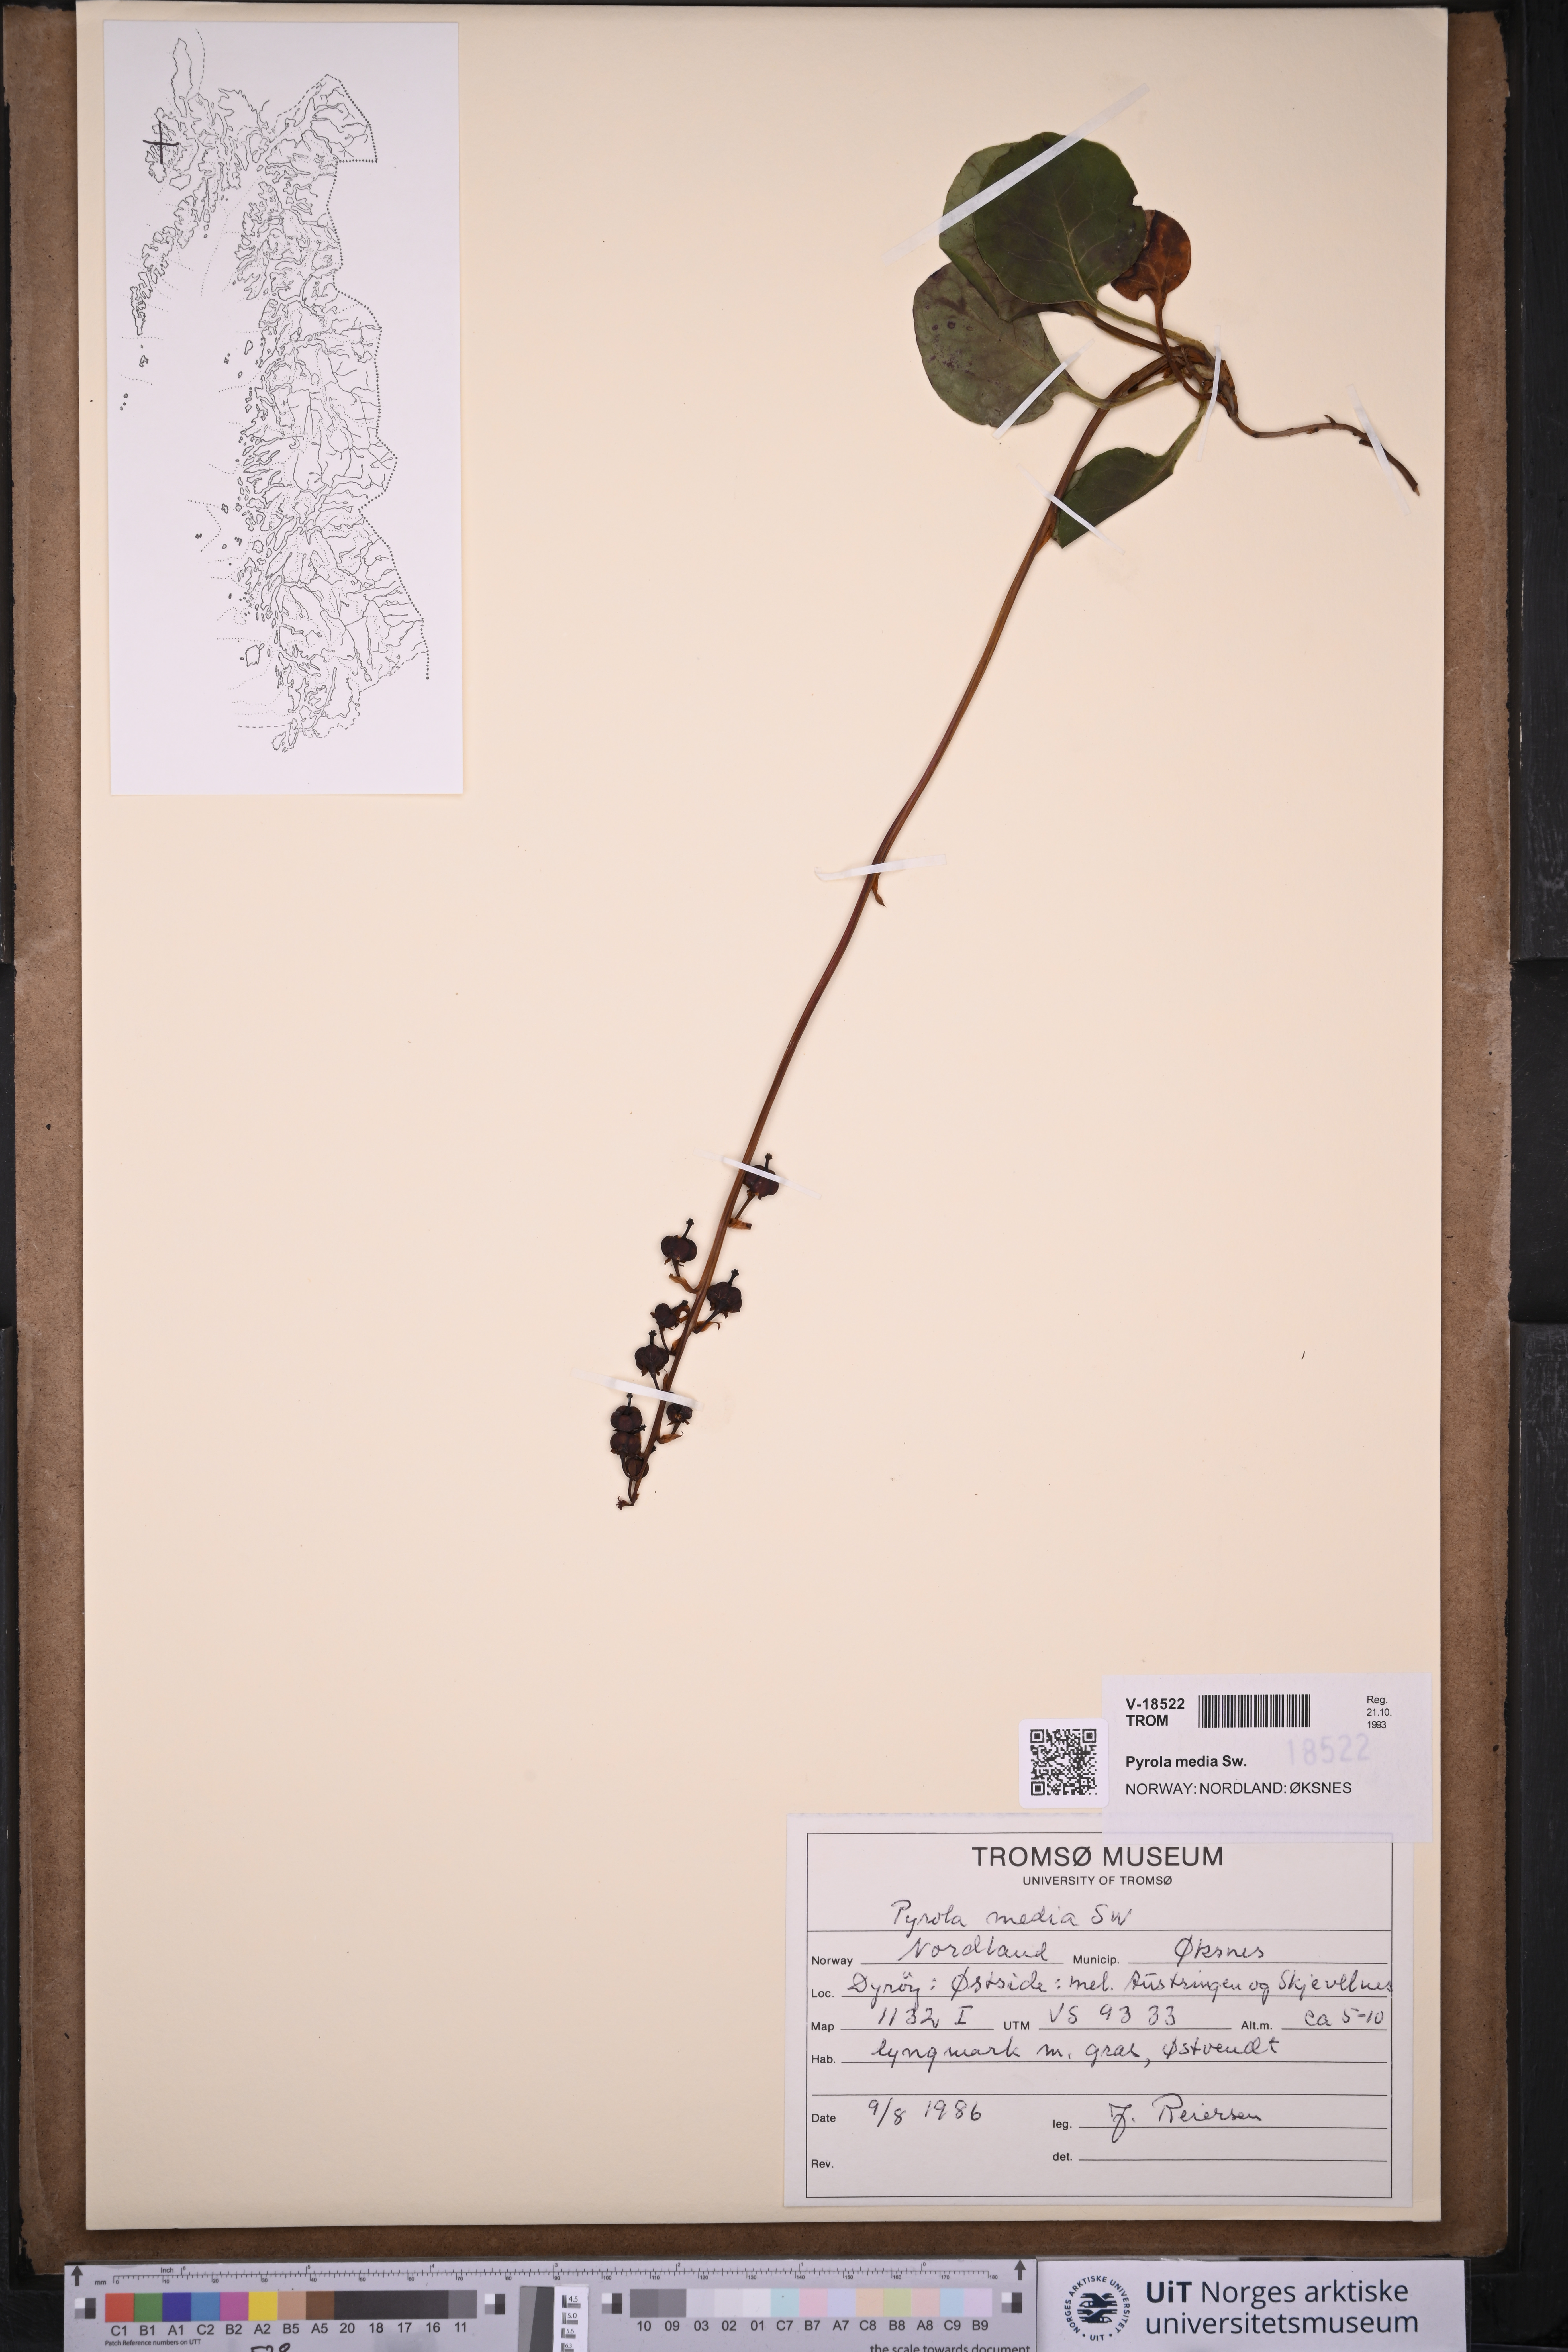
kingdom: Plantae
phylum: Tracheophyta
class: Magnoliopsida
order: Ericales
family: Ericaceae
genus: Pyrola
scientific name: Pyrola media
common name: Intermediate wintergreen
